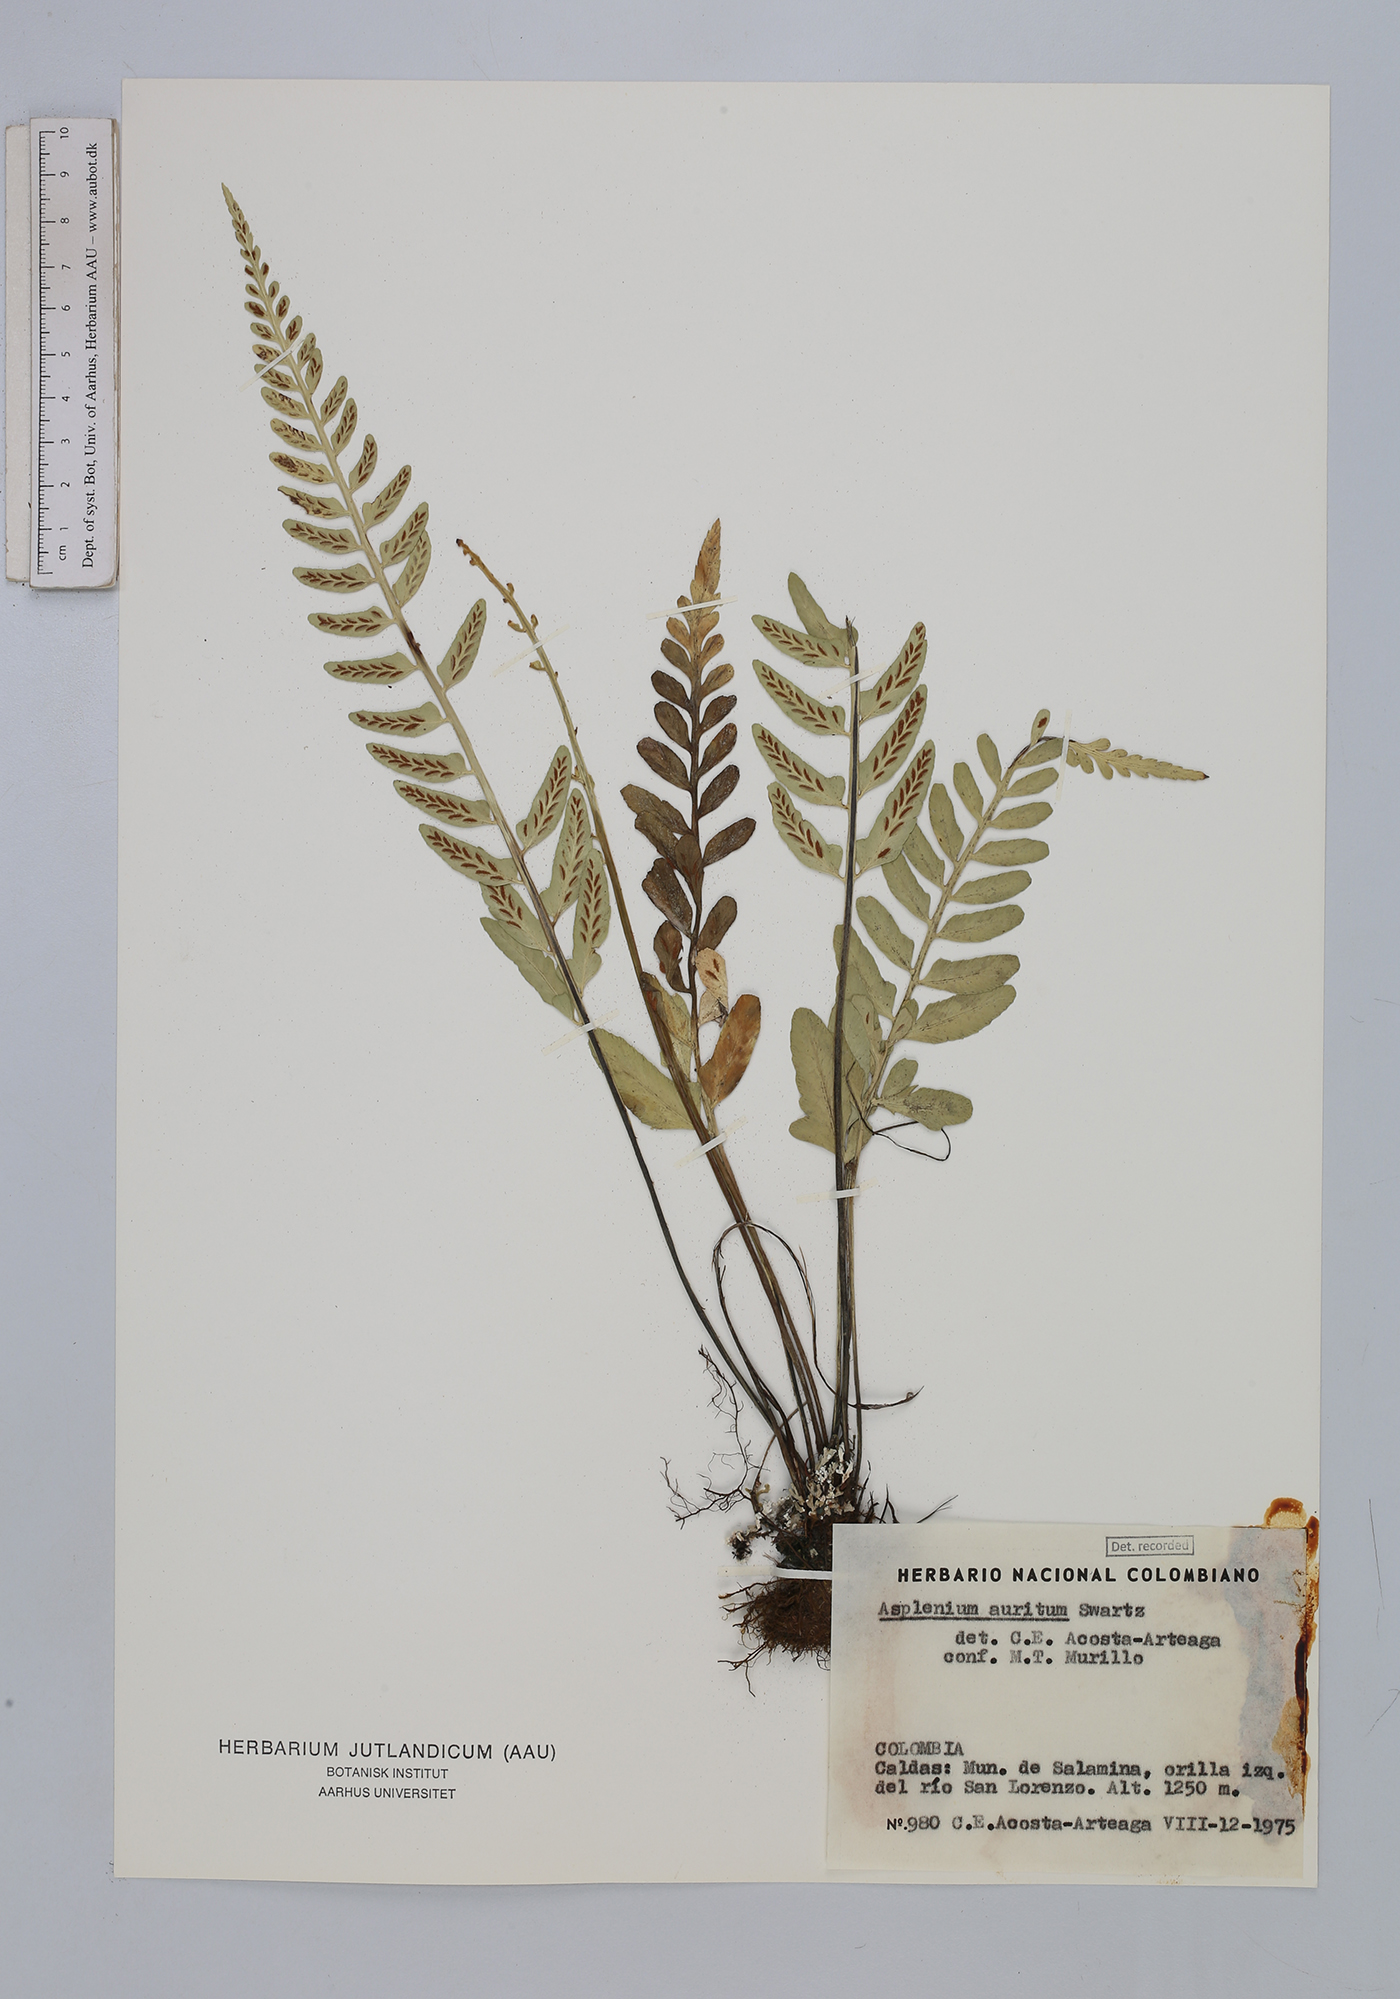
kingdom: Plantae
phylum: Tracheophyta
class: Polypodiopsida
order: Polypodiales
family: Aspleniaceae
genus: Asplenium
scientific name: Asplenium auritum
